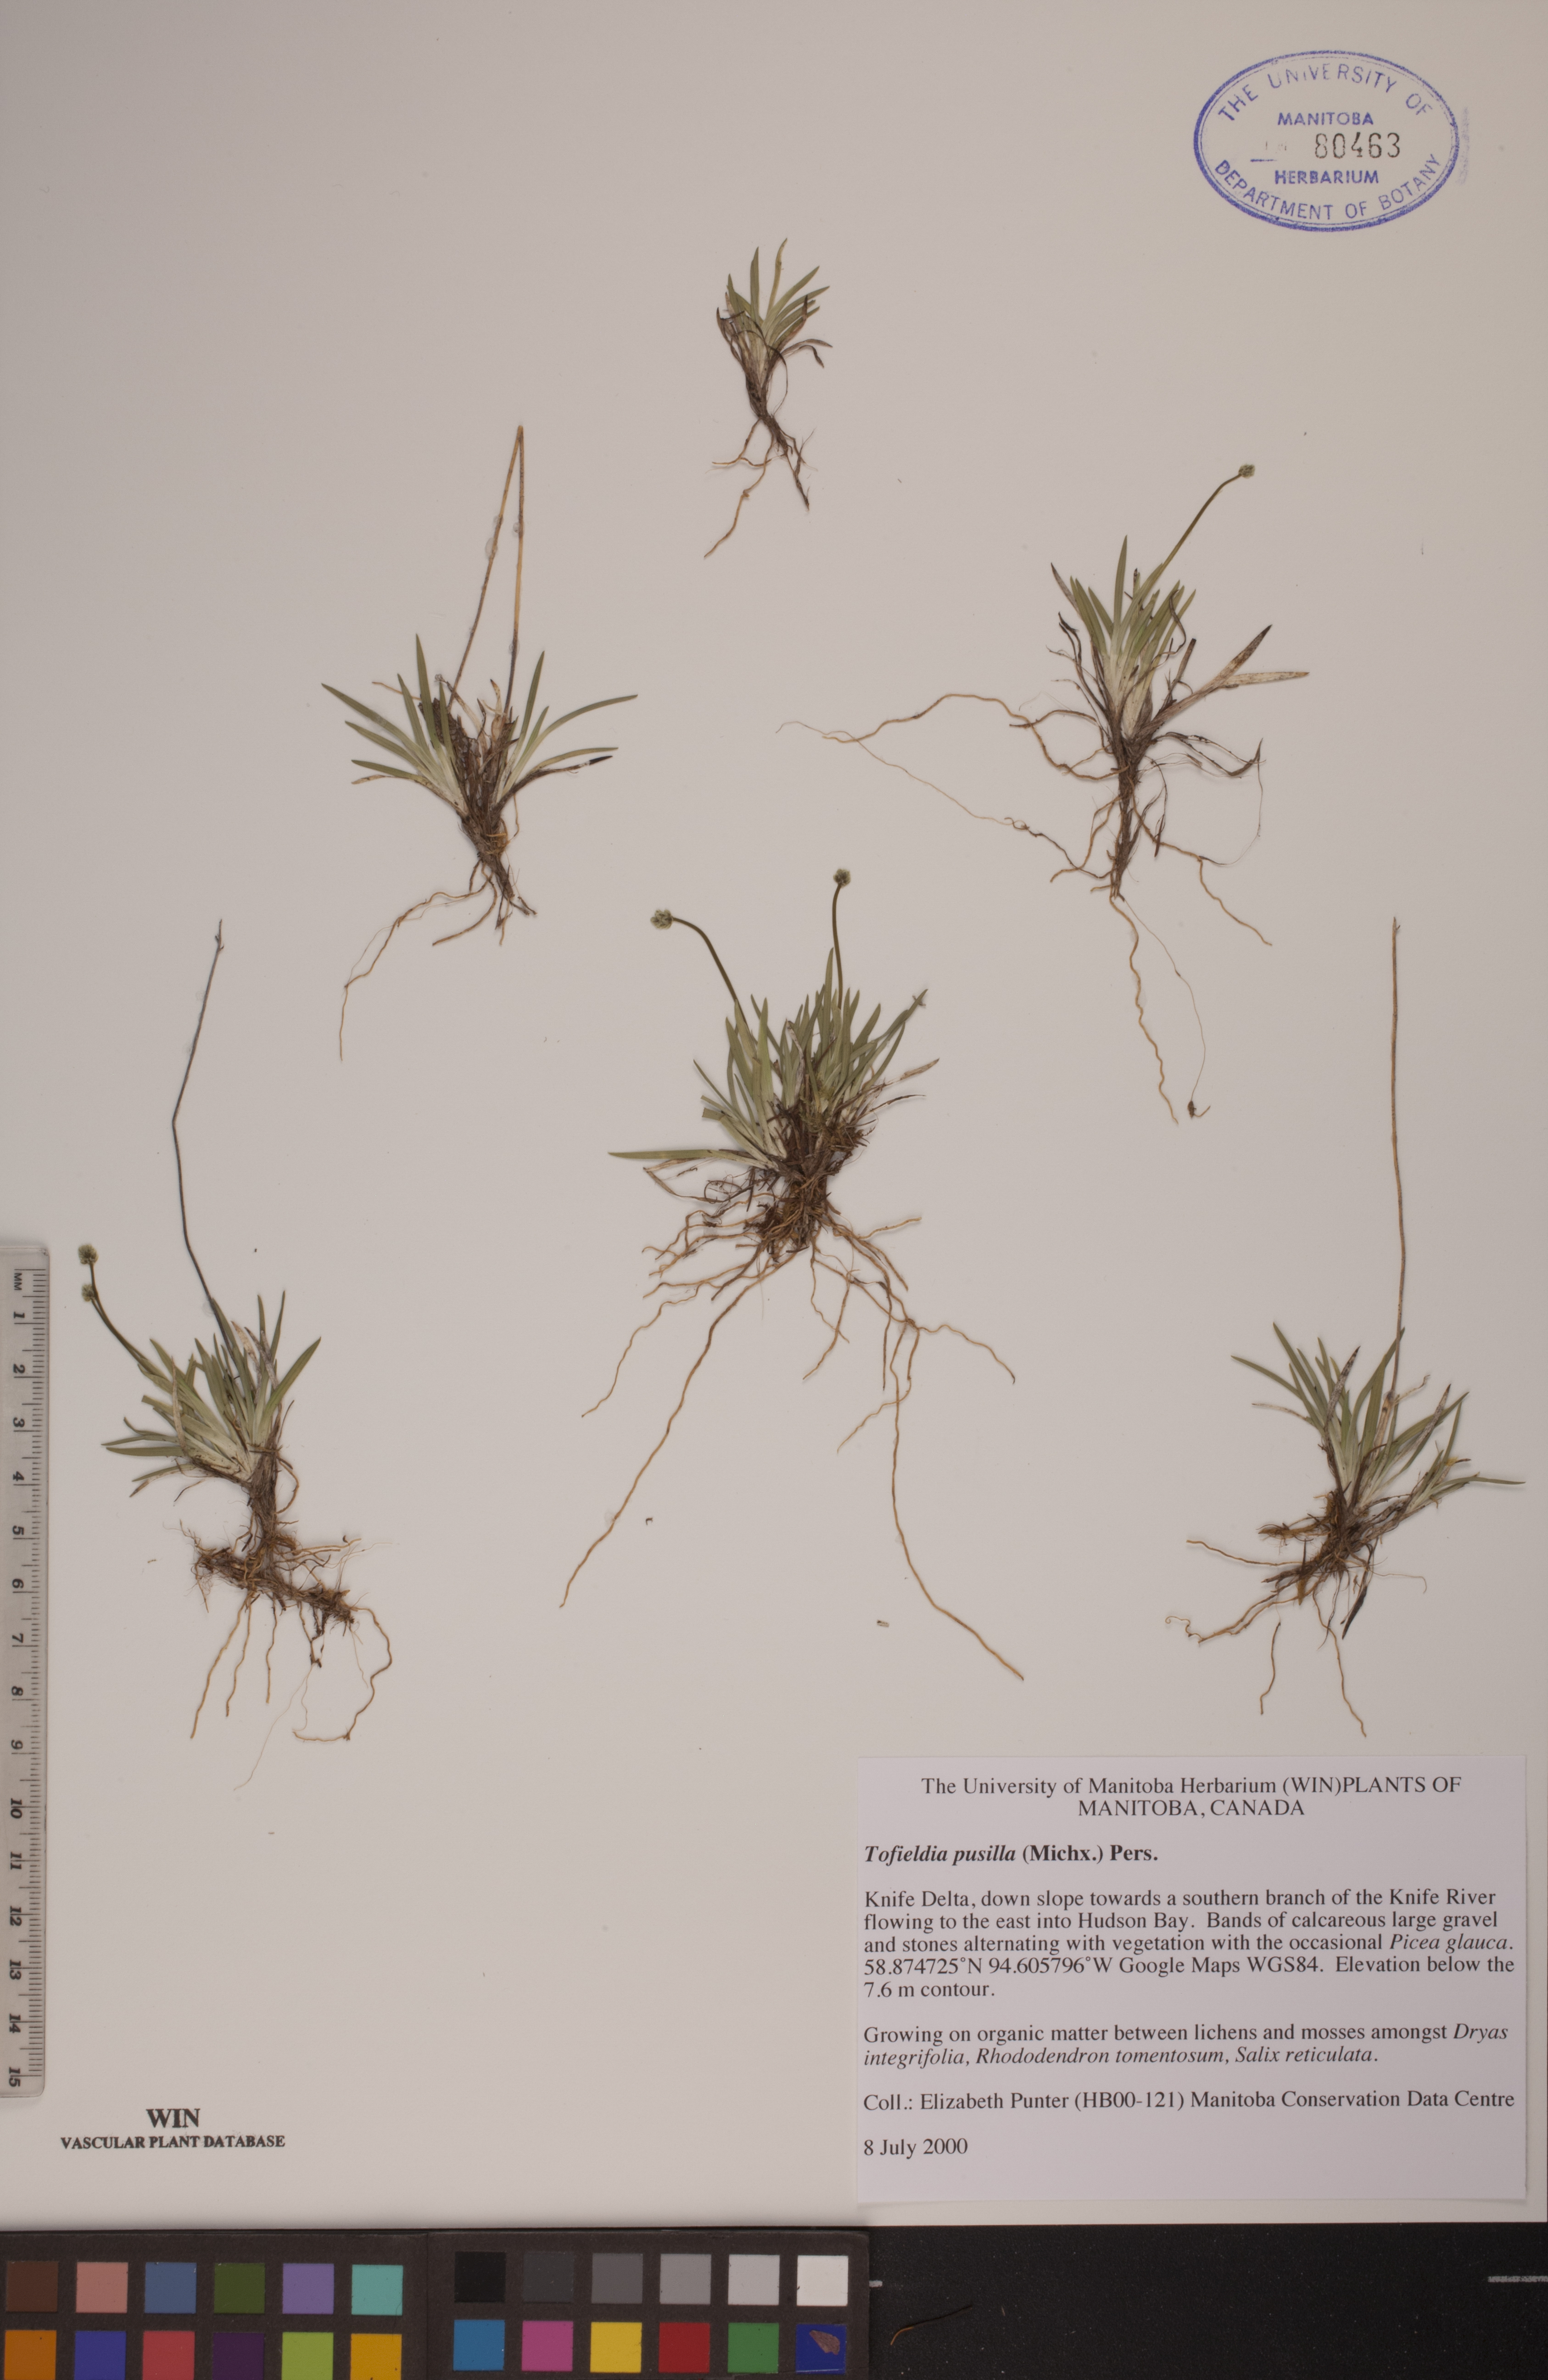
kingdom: Plantae
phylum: Tracheophyta
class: Liliopsida
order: Alismatales
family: Tofieldiaceae
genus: Tofieldia
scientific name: Tofieldia pusilla
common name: Scottish false asphodel
